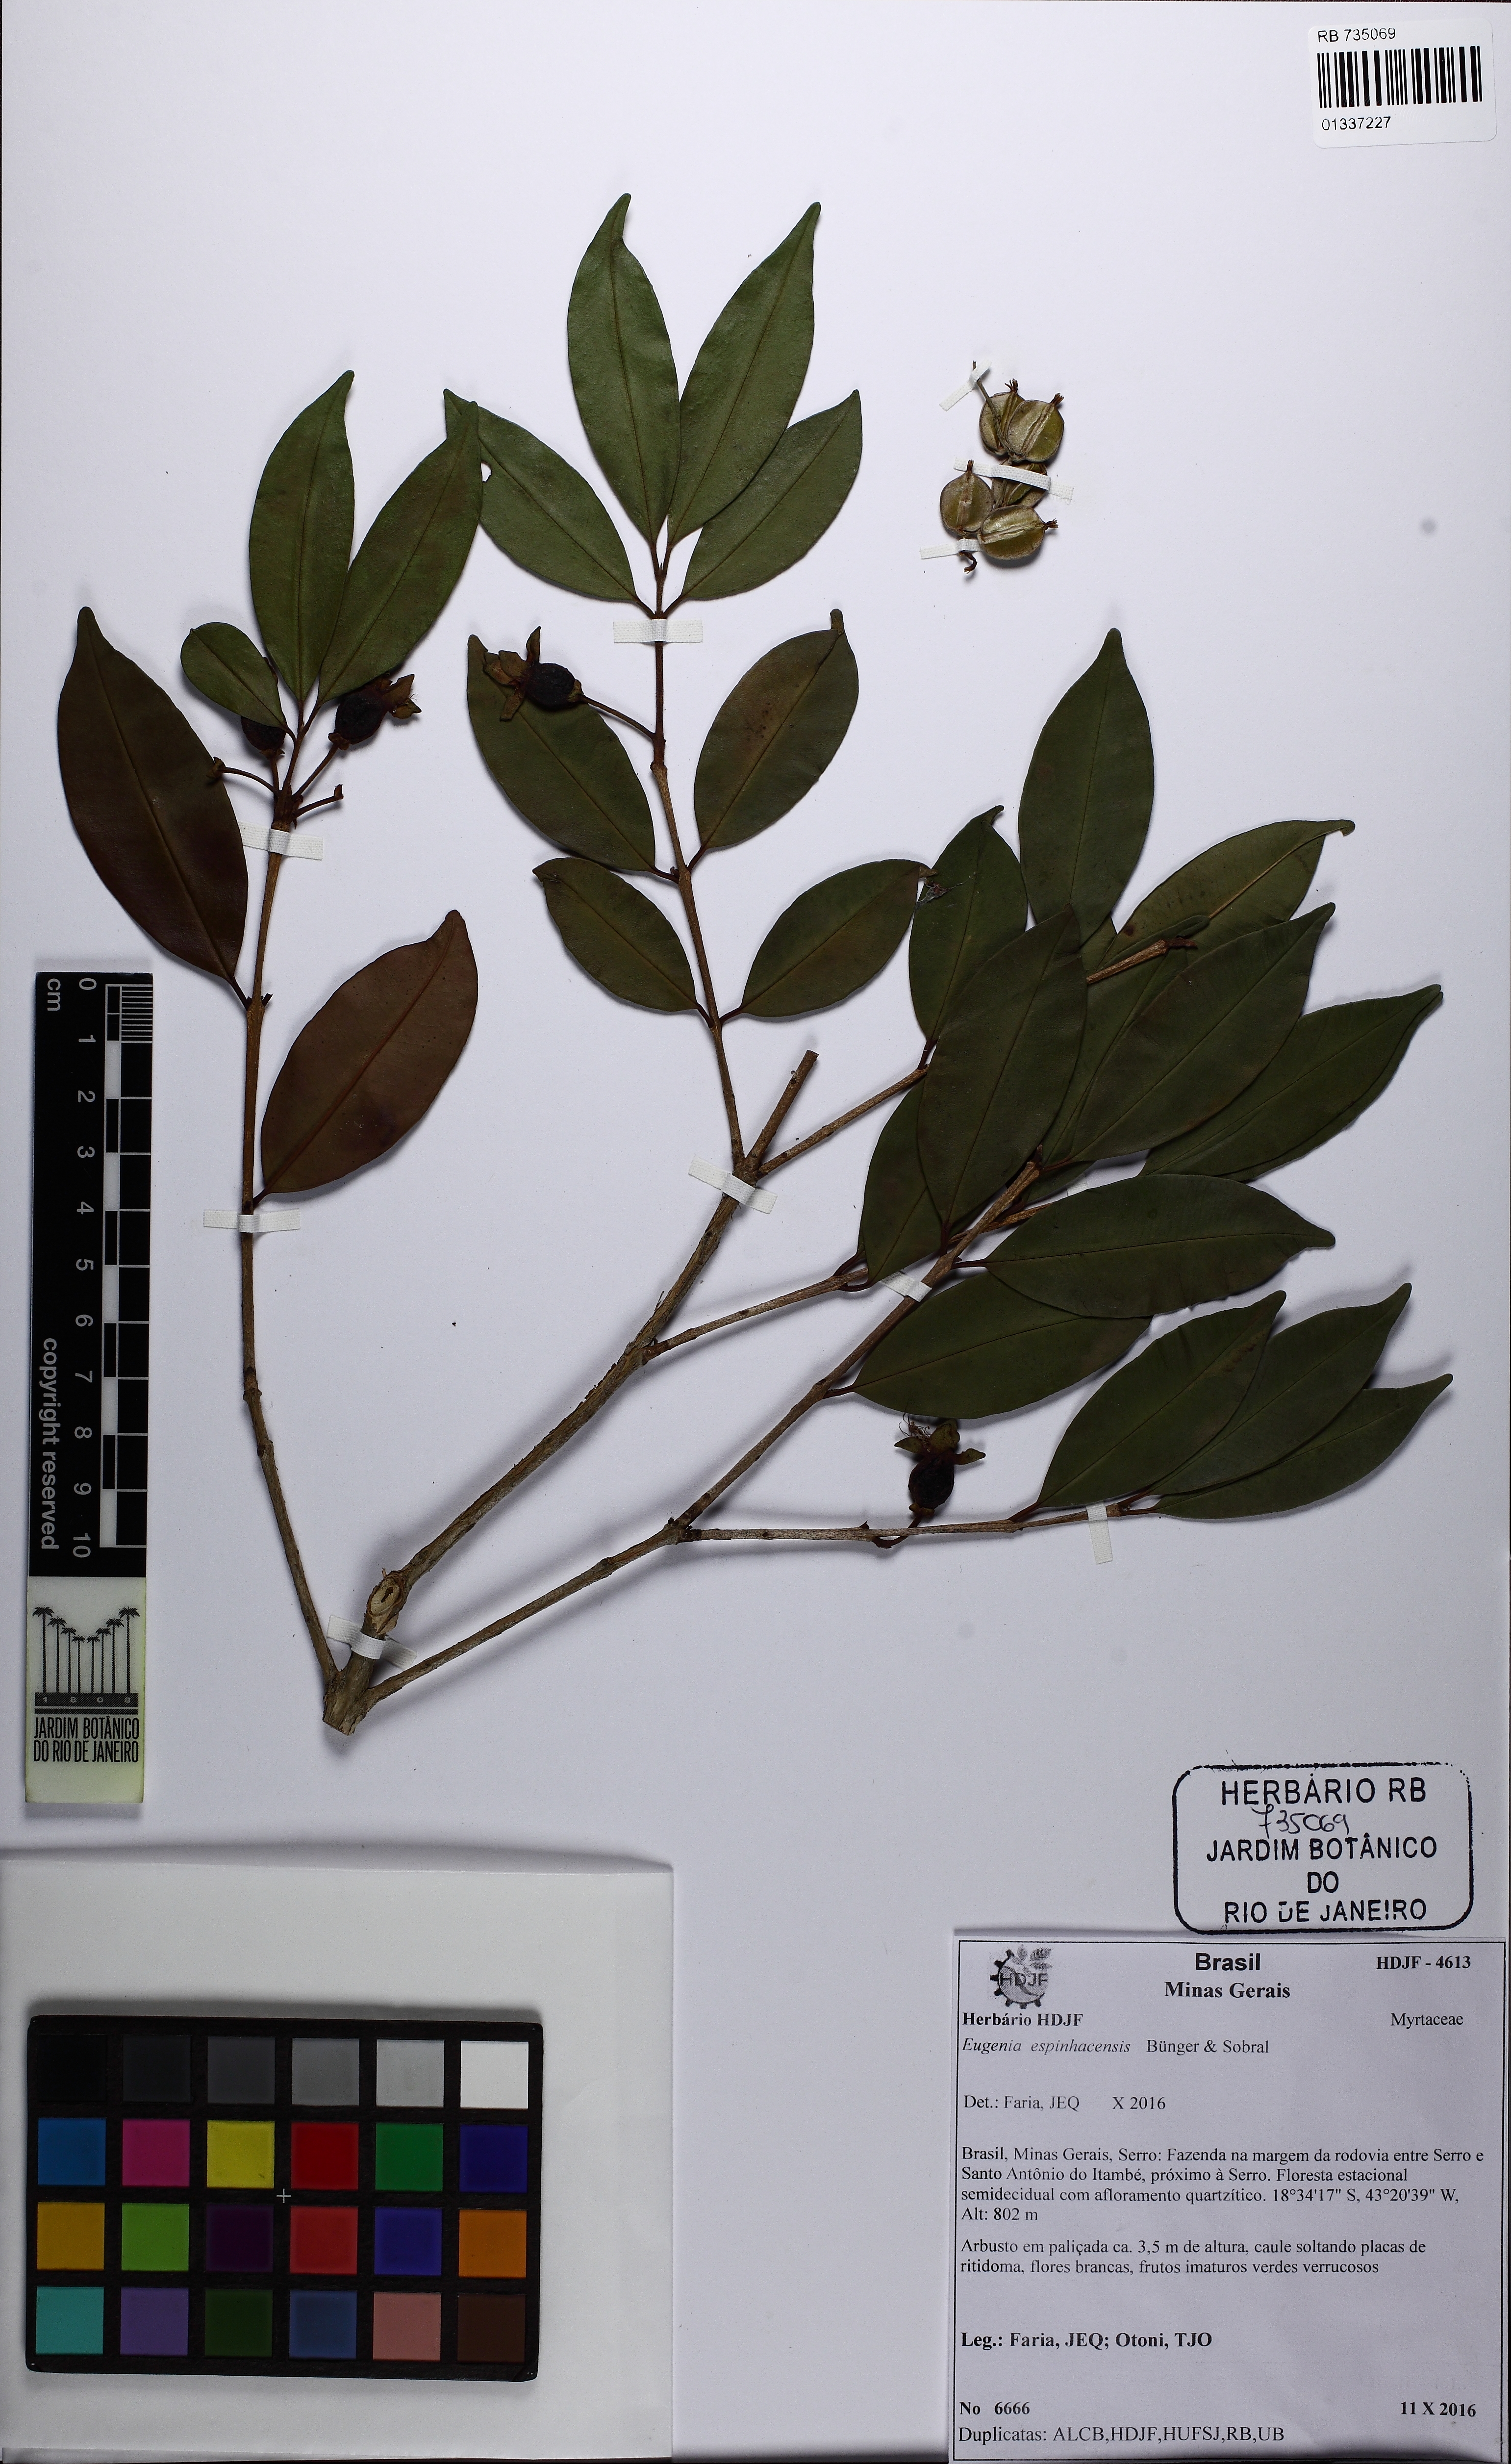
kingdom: Plantae
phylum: Tracheophyta
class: Magnoliopsida
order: Myrtales
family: Myrtaceae
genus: Eugenia
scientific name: Eugenia espinhacensis
